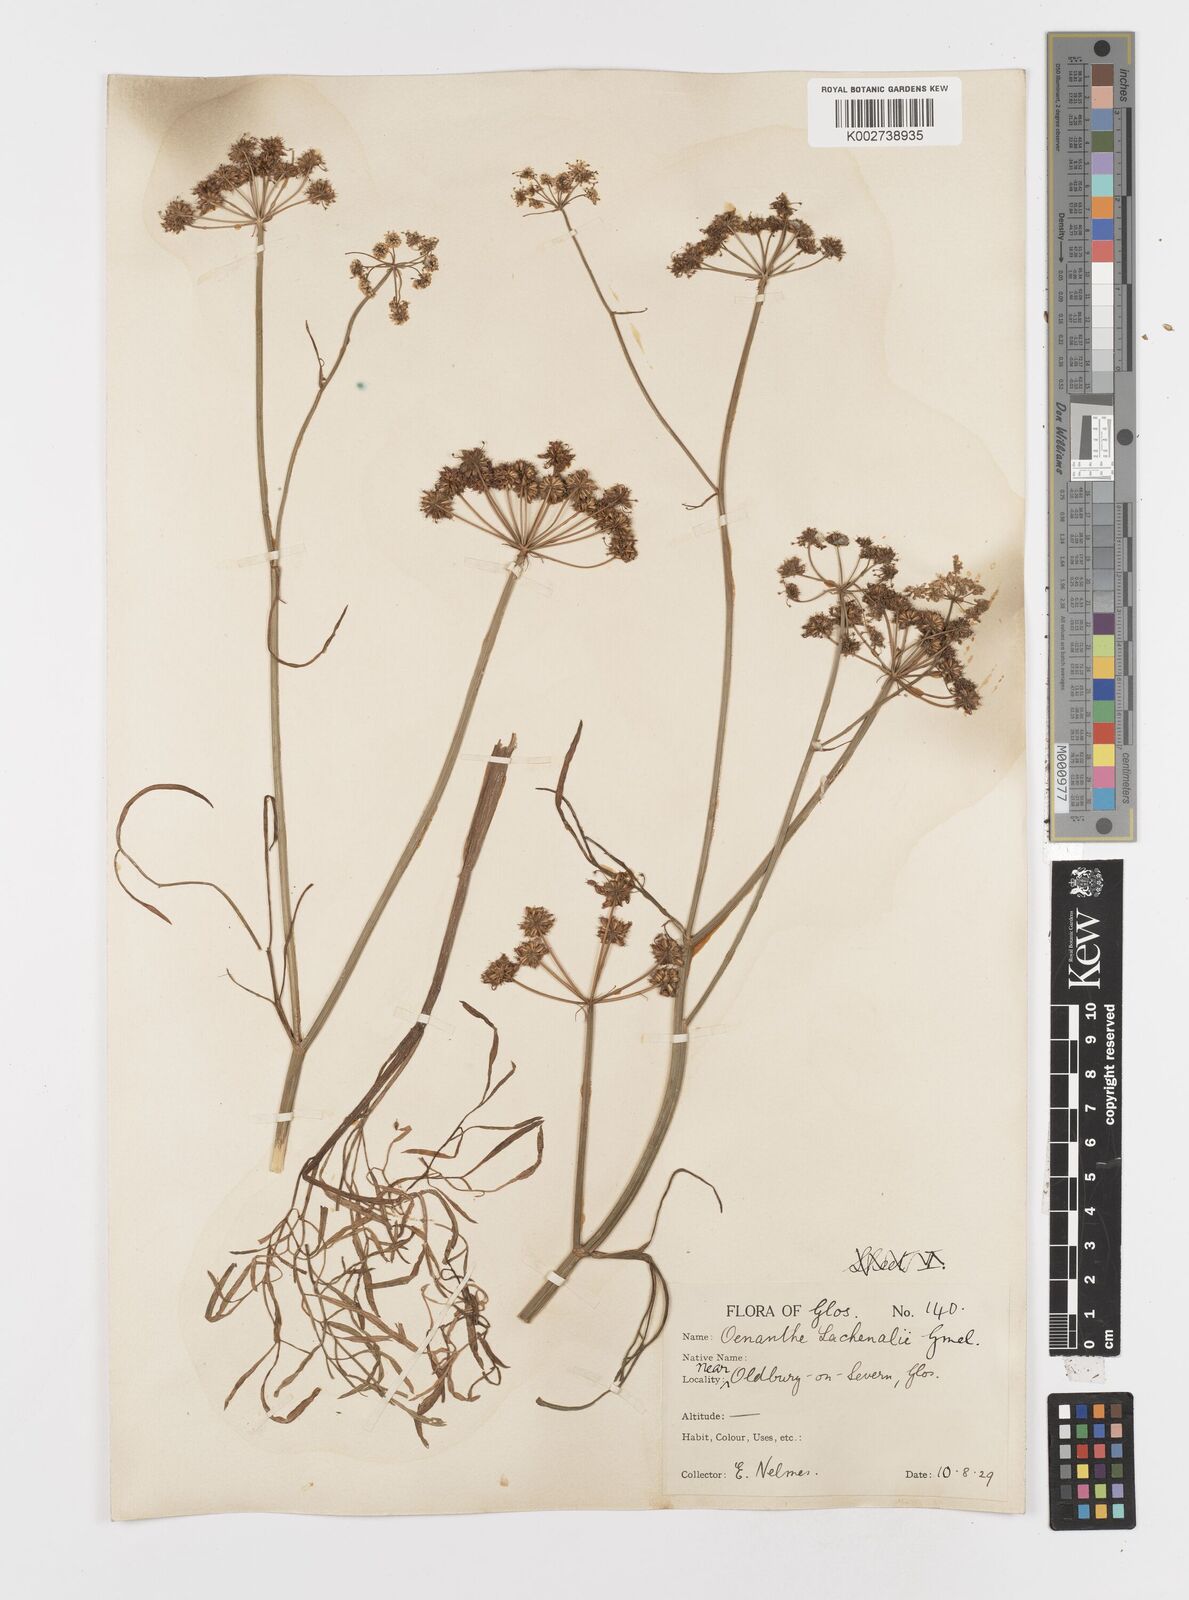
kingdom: Plantae
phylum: Tracheophyta
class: Magnoliopsida
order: Apiales
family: Apiaceae
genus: Oenanthe
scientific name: Oenanthe lachenalii
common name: Parsley water-dropwort
